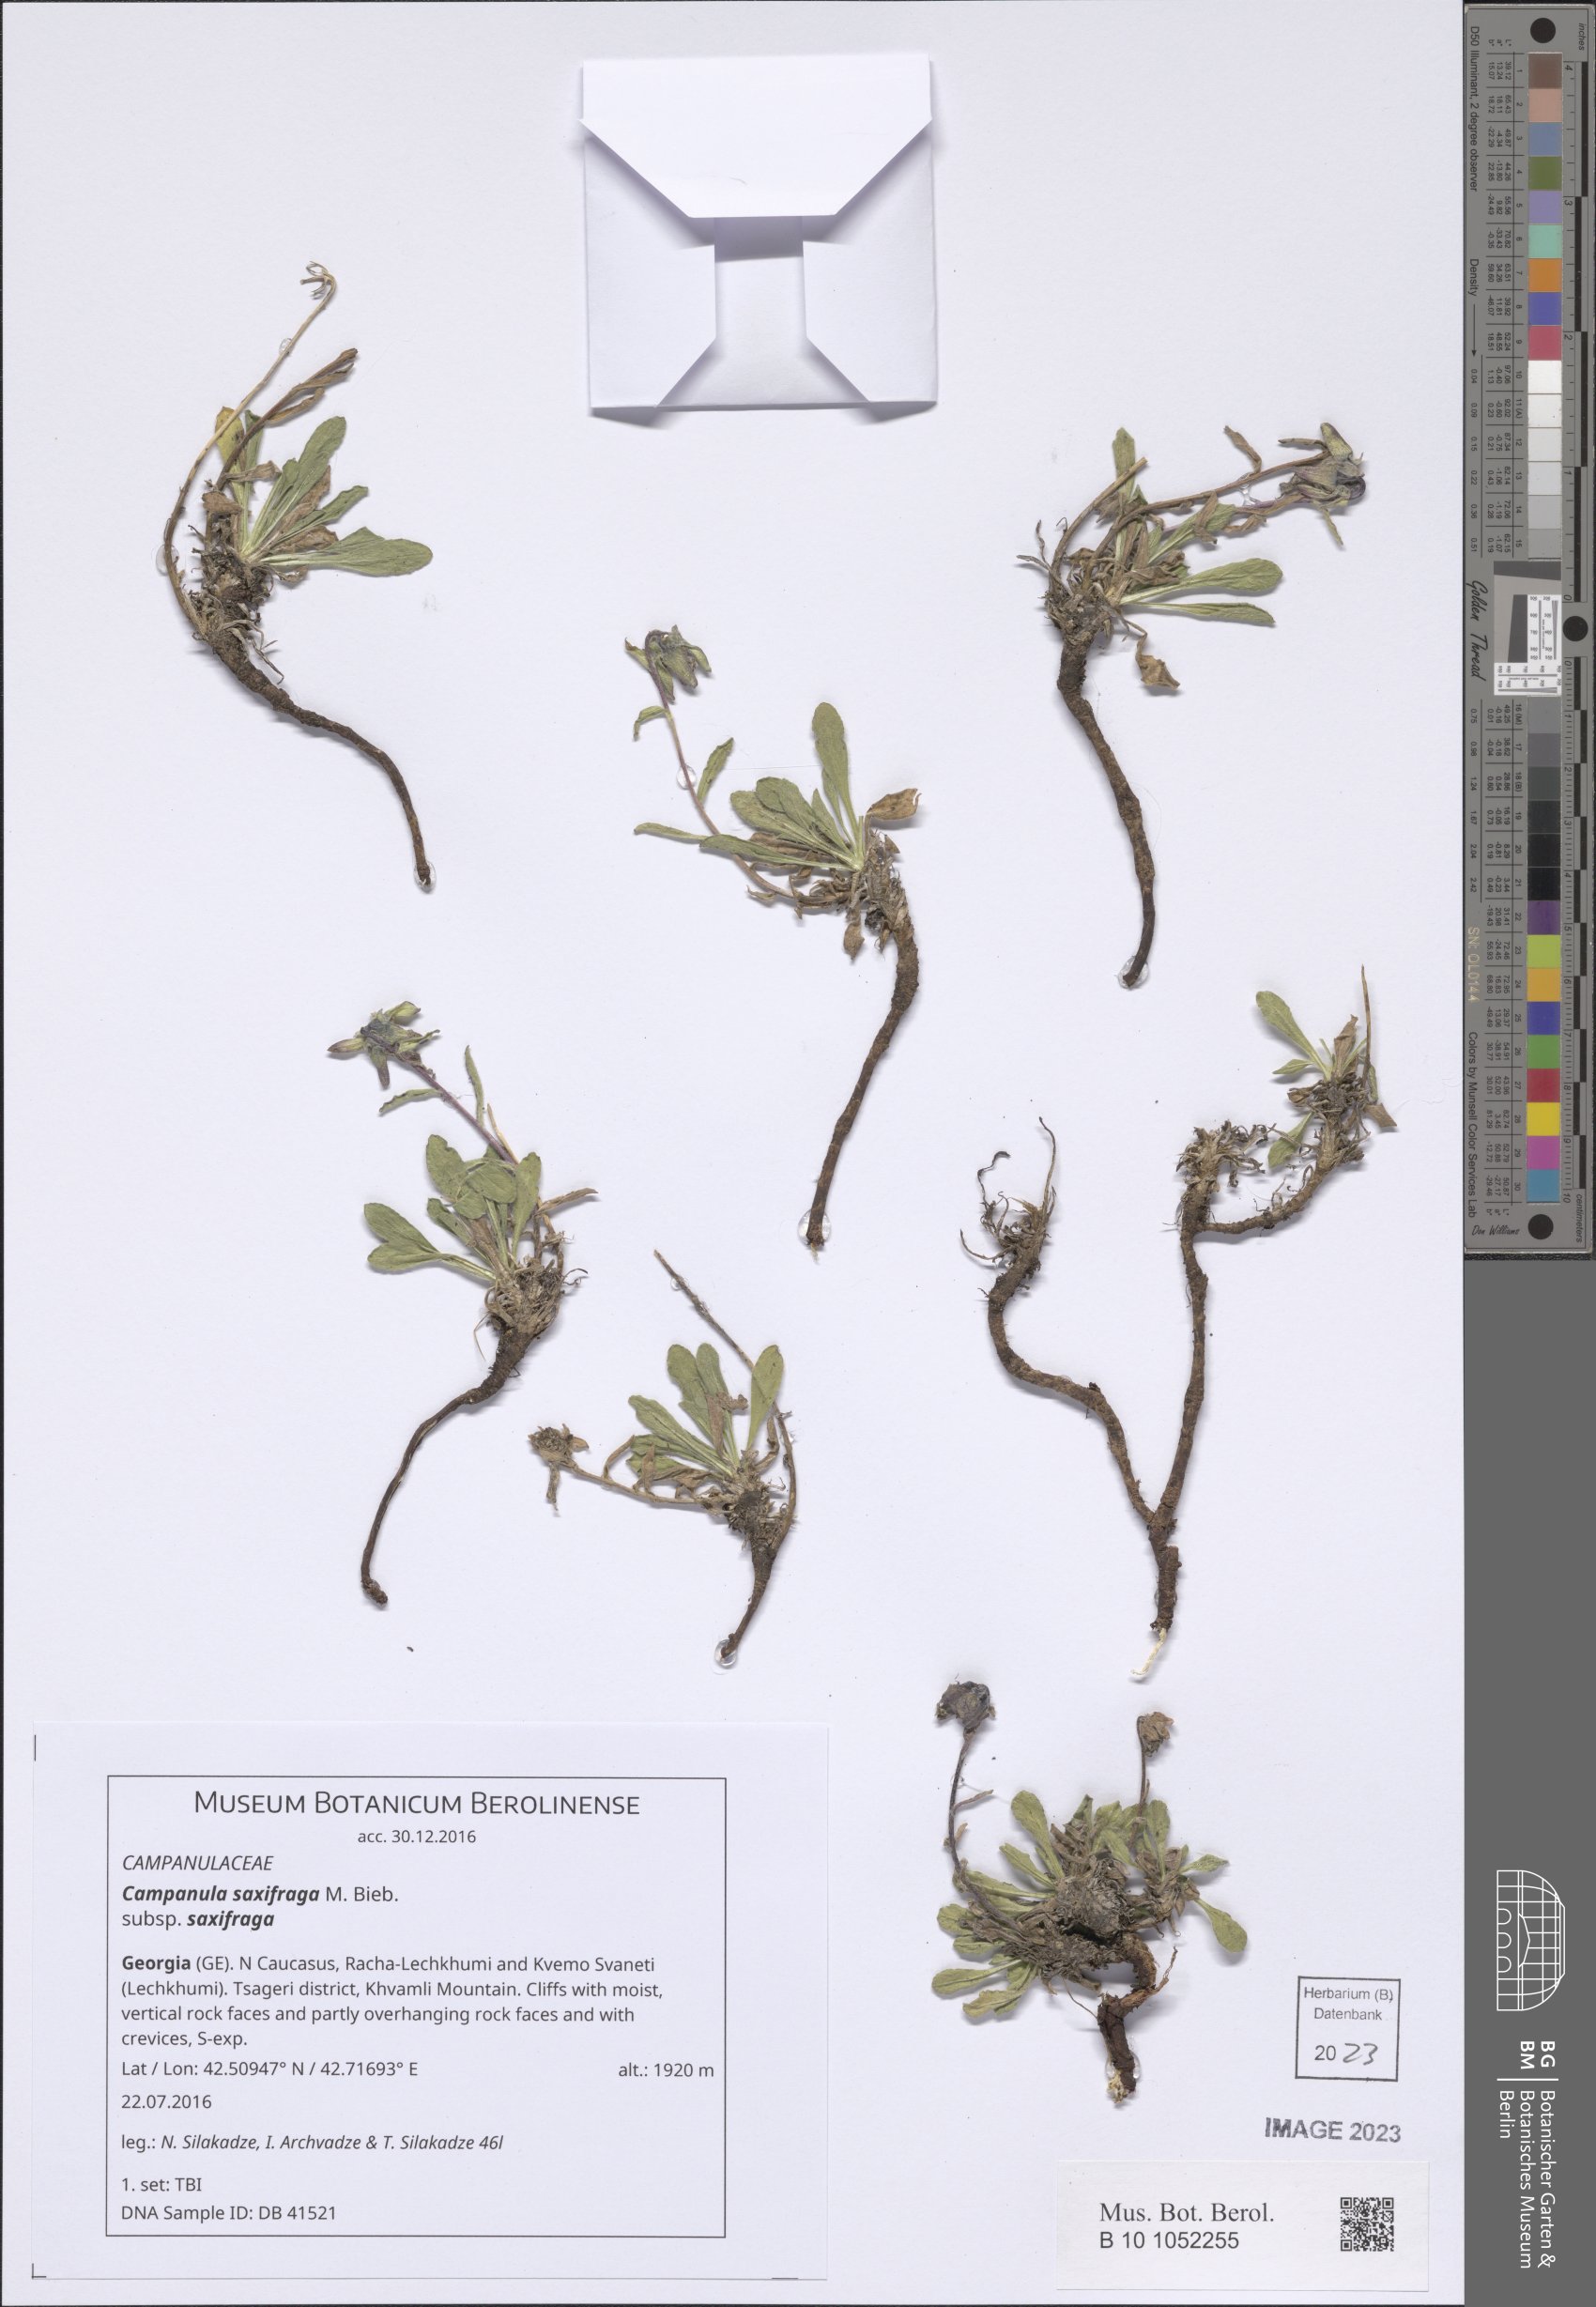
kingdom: Plantae
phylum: Tracheophyta
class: Magnoliopsida
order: Asterales
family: Campanulaceae
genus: Campanula
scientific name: Campanula saxifraga
